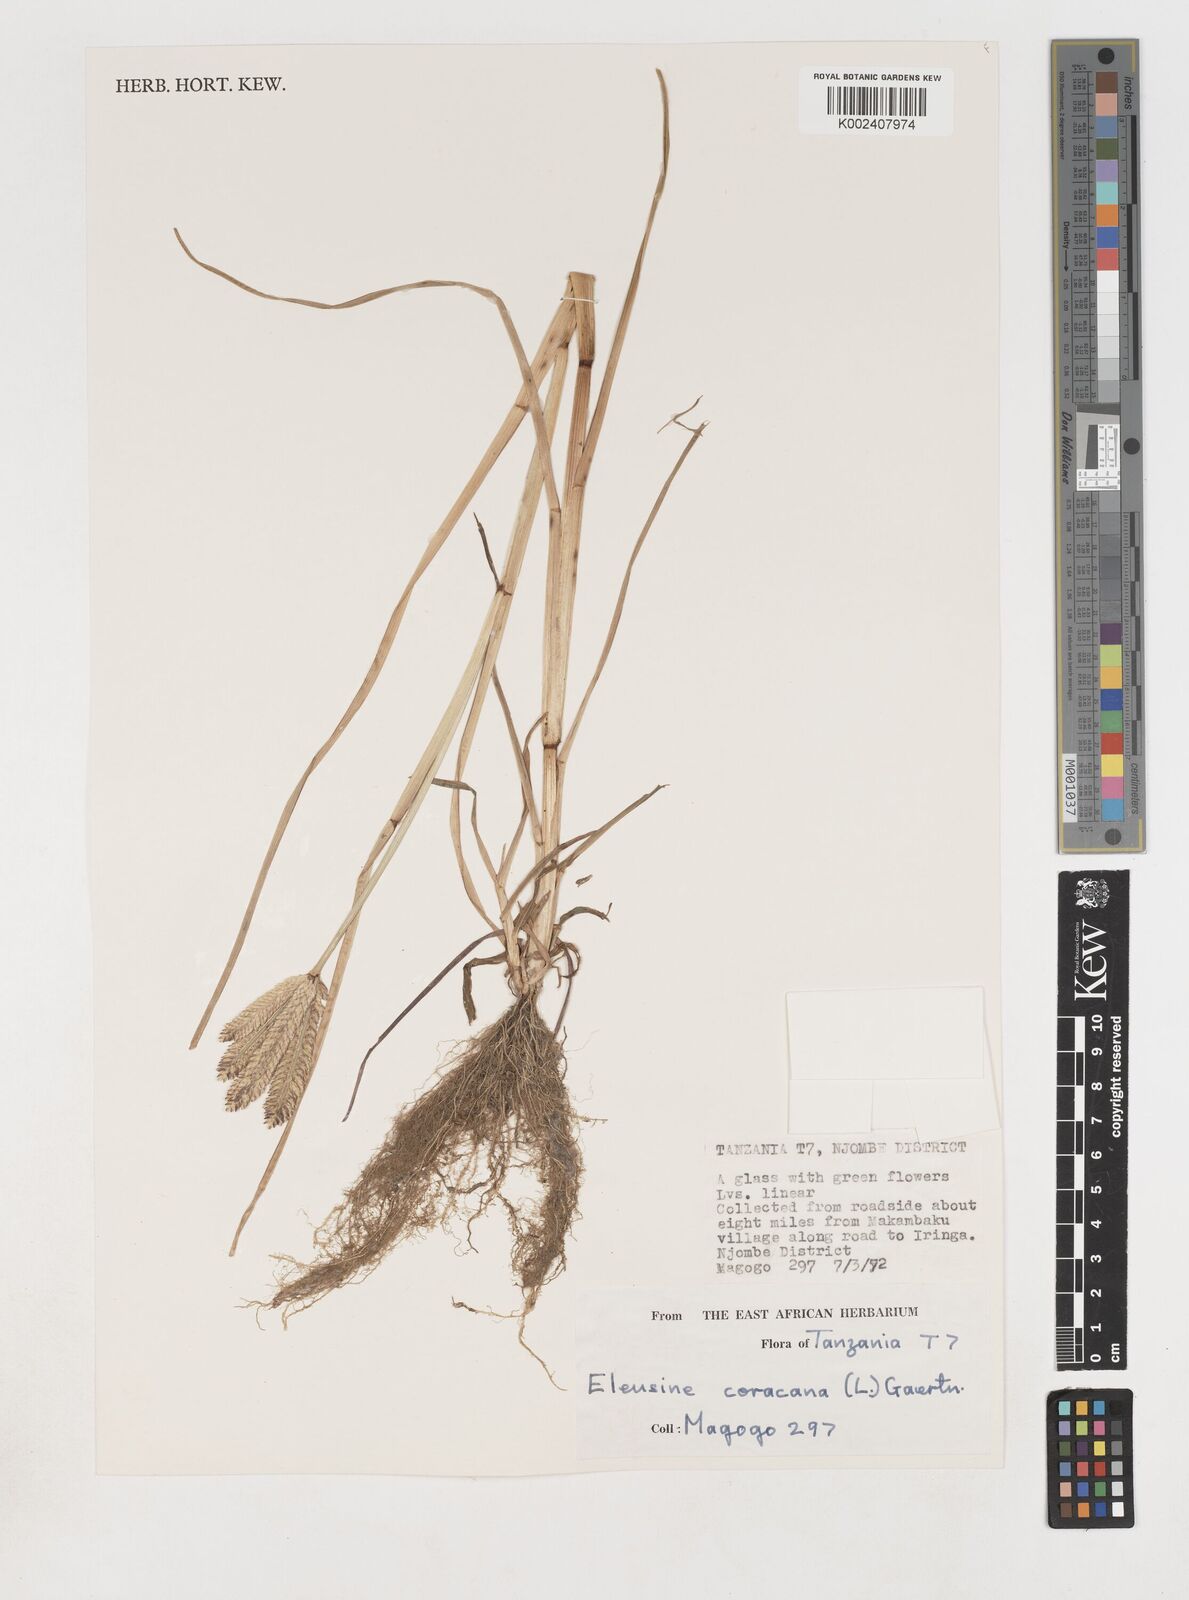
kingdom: Plantae
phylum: Tracheophyta
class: Liliopsida
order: Poales
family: Poaceae
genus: Eleusine
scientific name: Eleusine coracana
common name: Finger millet
